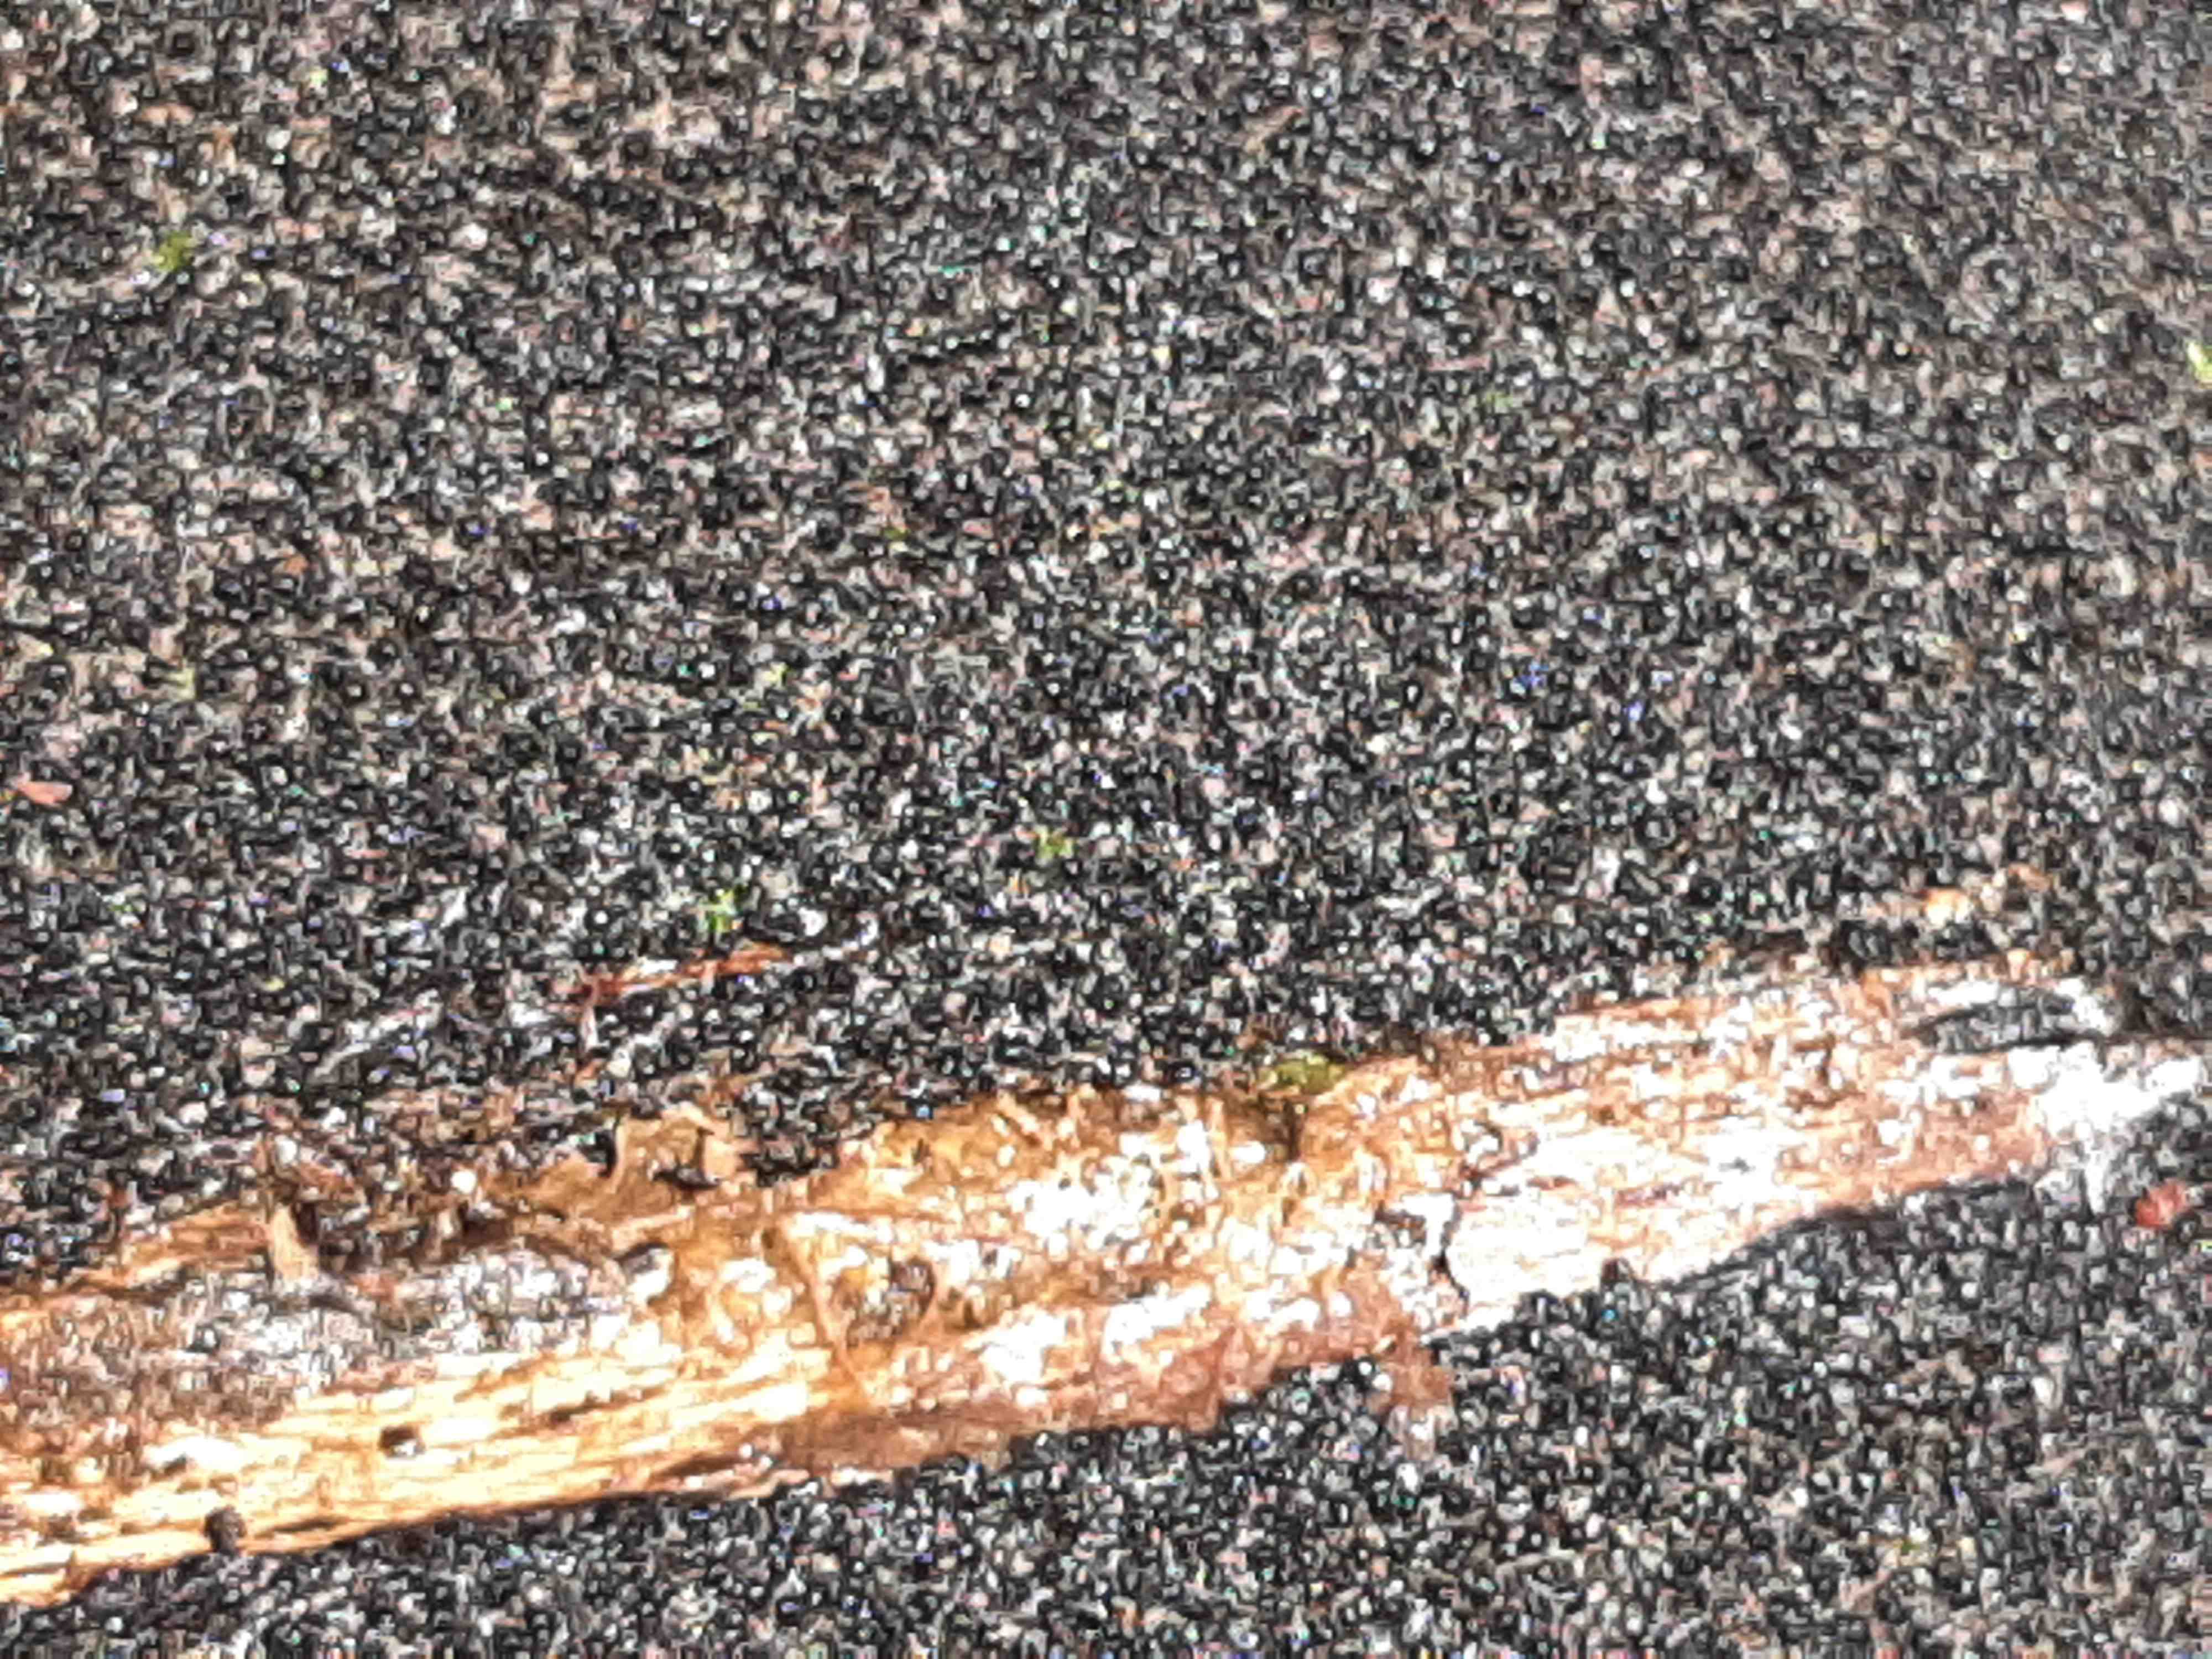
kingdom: Fungi
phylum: Ascomycota
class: Sordariomycetes
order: Xylariales
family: Diatrypaceae
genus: Eutypa
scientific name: Eutypa spinosa
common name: grov kulskorpe
